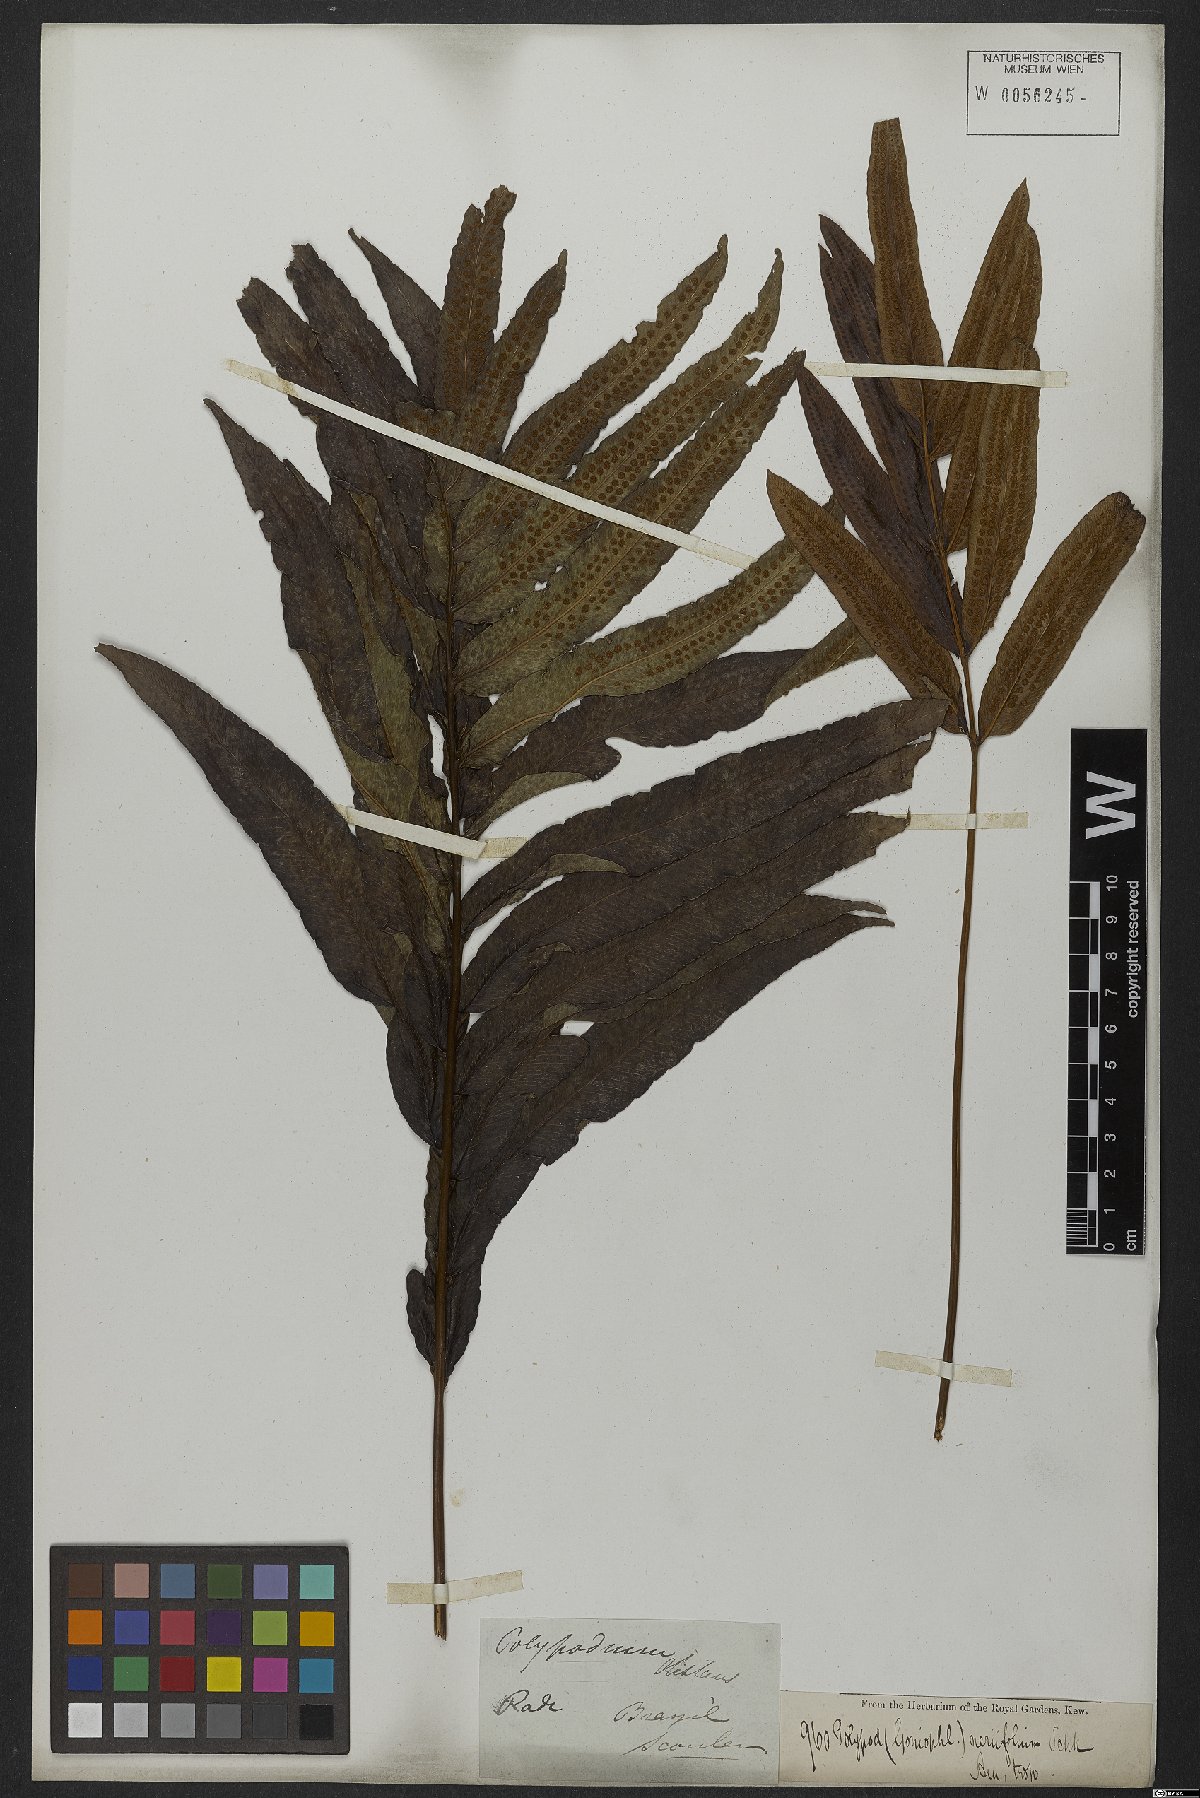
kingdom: Plantae
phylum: Tracheophyta
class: Polypodiopsida
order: Polypodiales
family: Polypodiaceae
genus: Serpocaulon
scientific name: Serpocaulon triseriale
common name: Angle-vein fern
